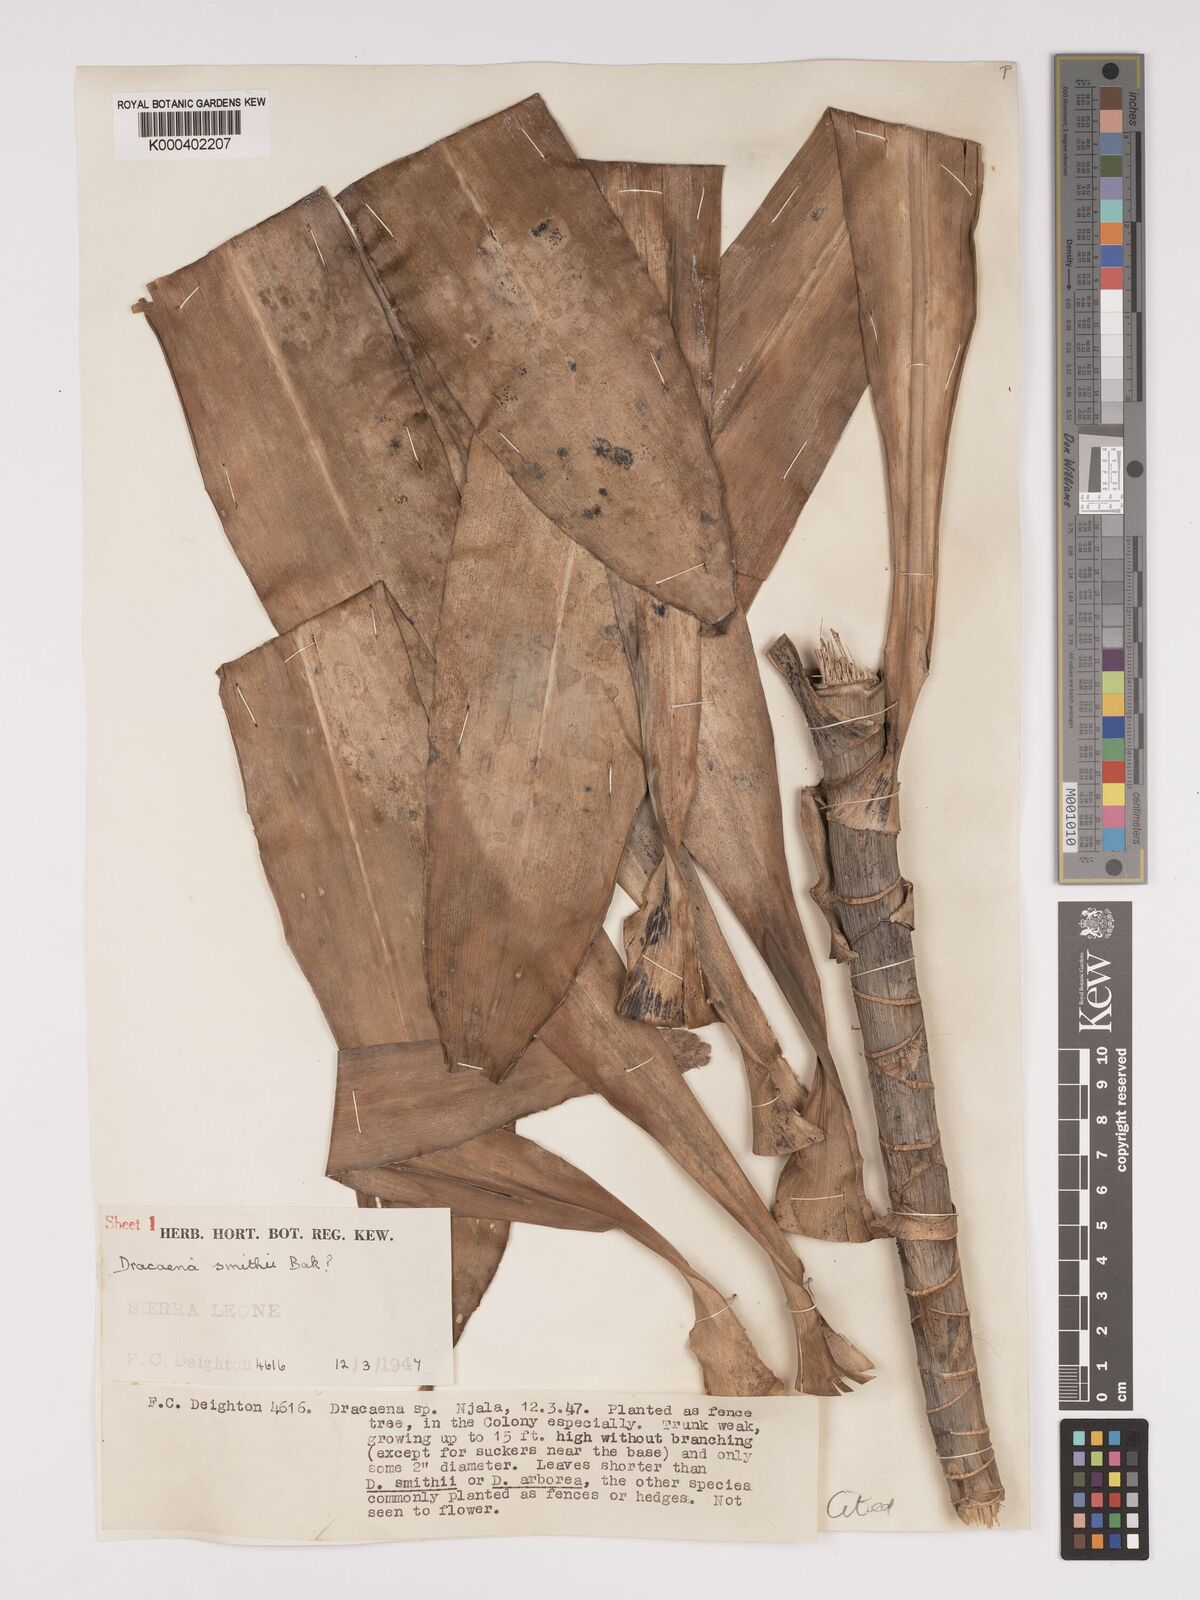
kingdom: Plantae
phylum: Tracheophyta
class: Liliopsida
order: Asparagales
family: Asparagaceae
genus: Dracaena
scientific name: Dracaena fragrans
